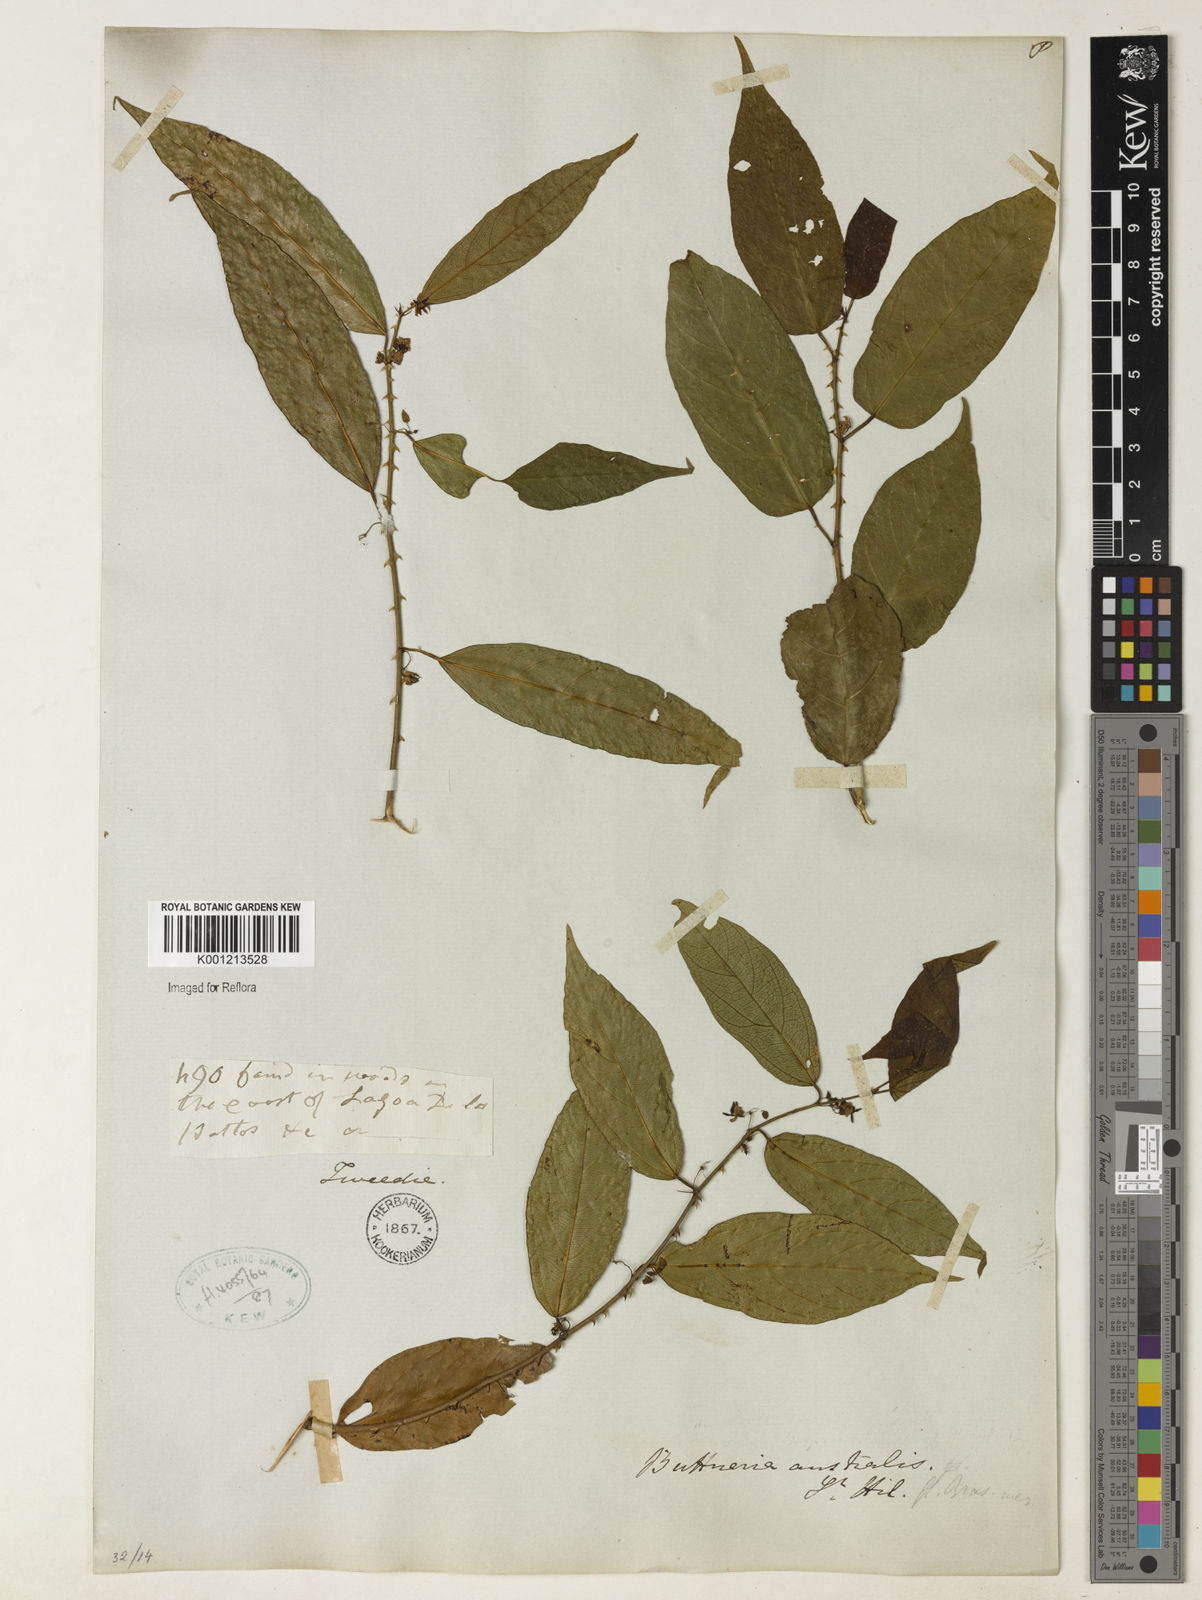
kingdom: Plantae
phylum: Tracheophyta
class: Magnoliopsida
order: Malvales
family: Malvaceae
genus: Byttneria
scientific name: Byttneria australis
